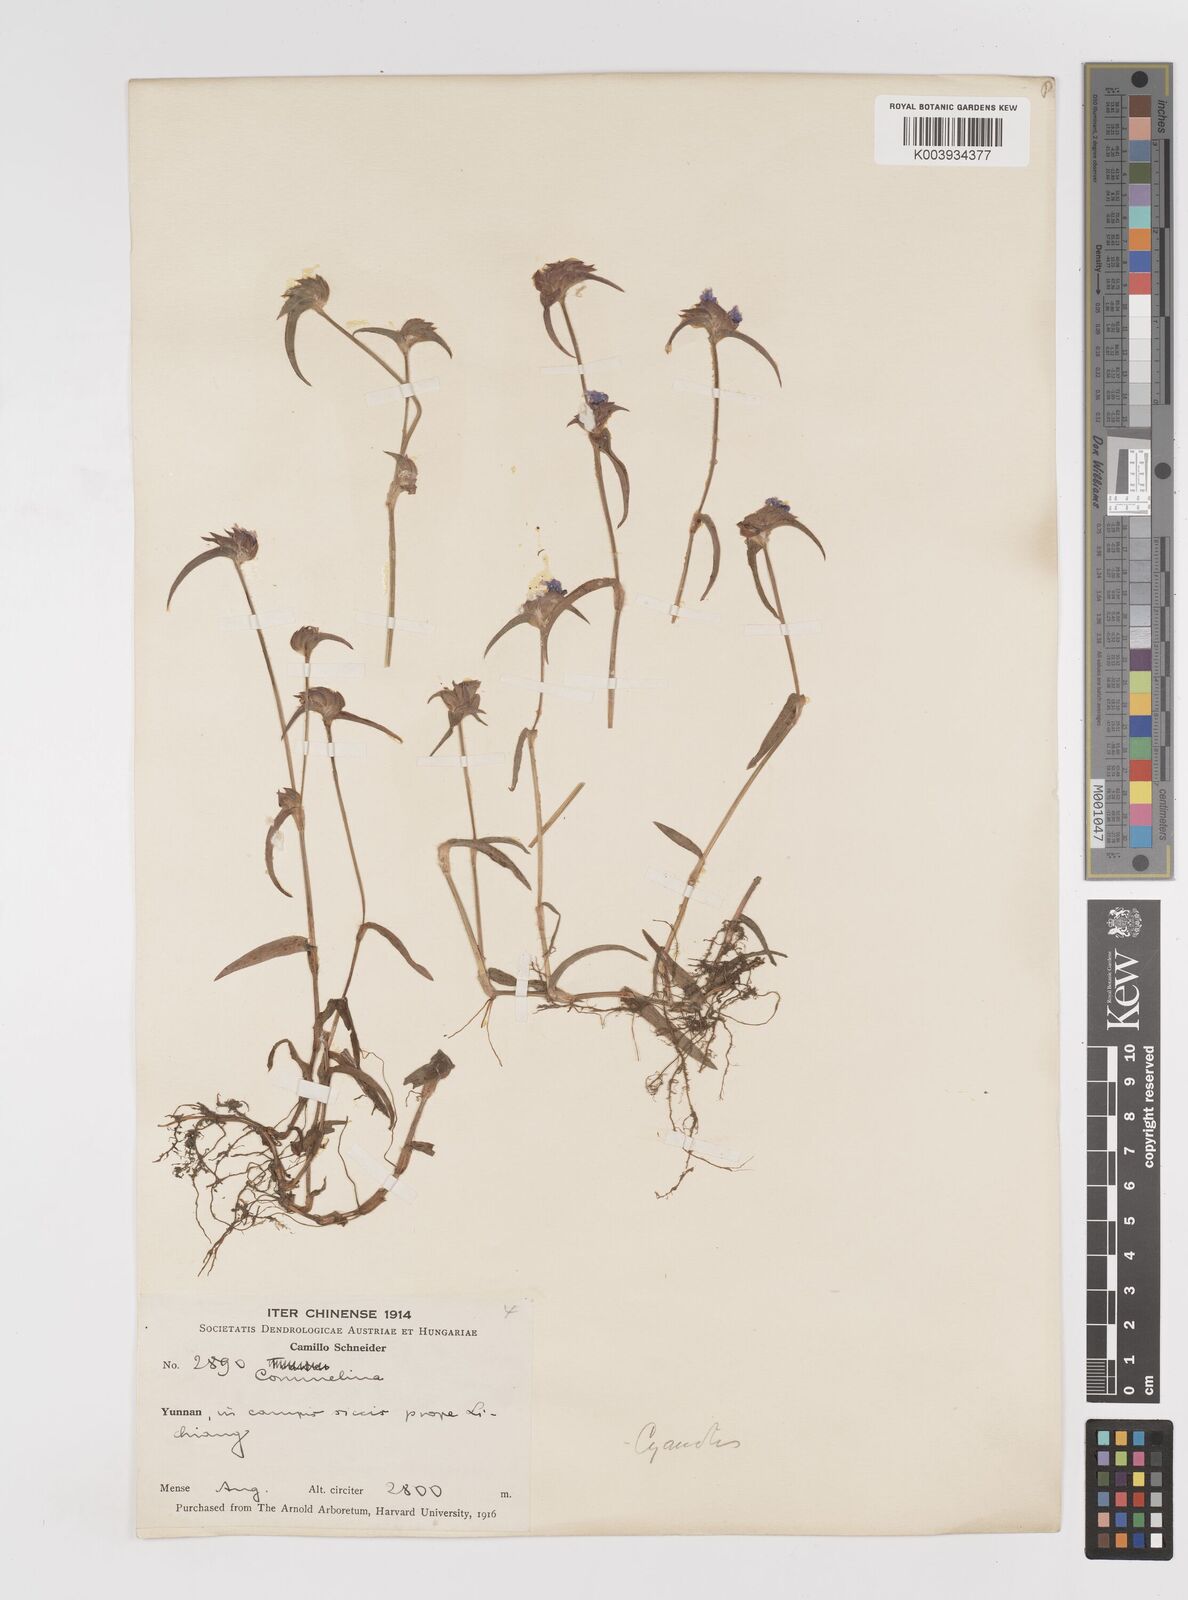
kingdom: Plantae
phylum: Tracheophyta
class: Liliopsida
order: Commelinales
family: Commelinaceae
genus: Cyanotis
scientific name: Cyanotis
